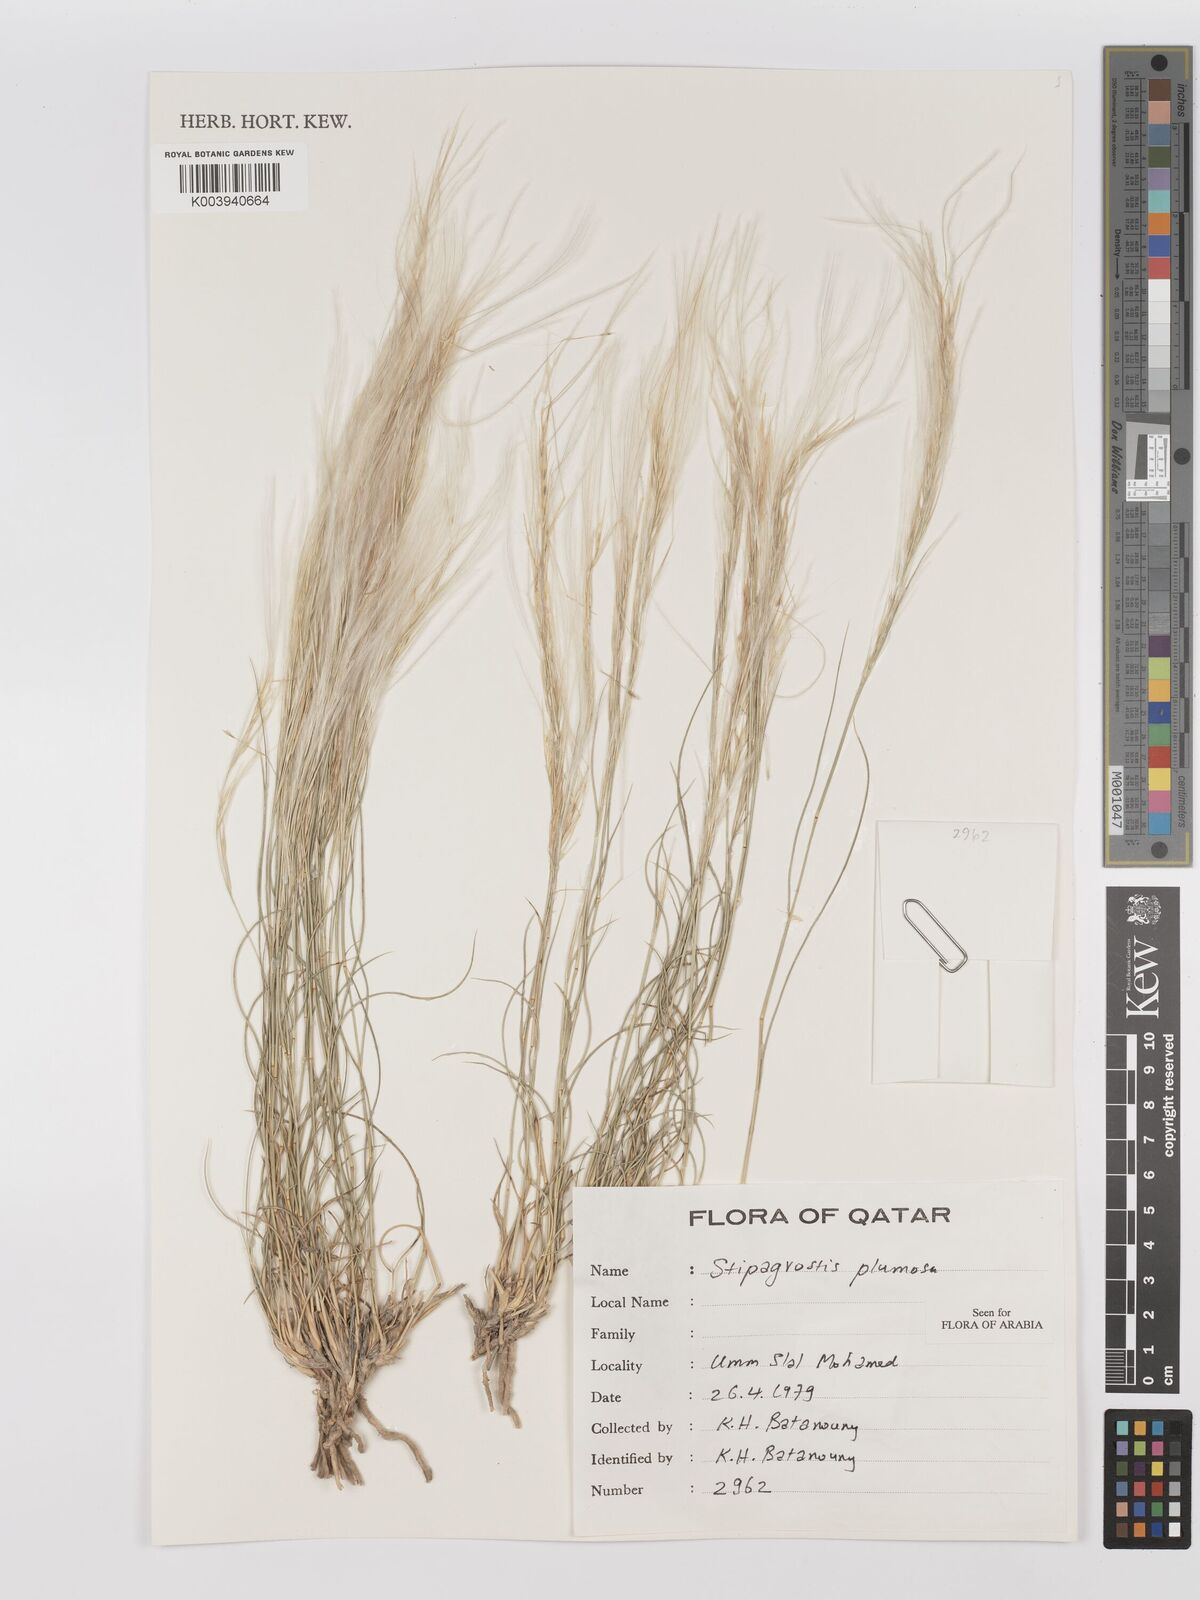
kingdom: Plantae
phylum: Tracheophyta
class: Liliopsida
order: Poales
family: Poaceae
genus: Stipagrostis
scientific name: Stipagrostis plumosa
